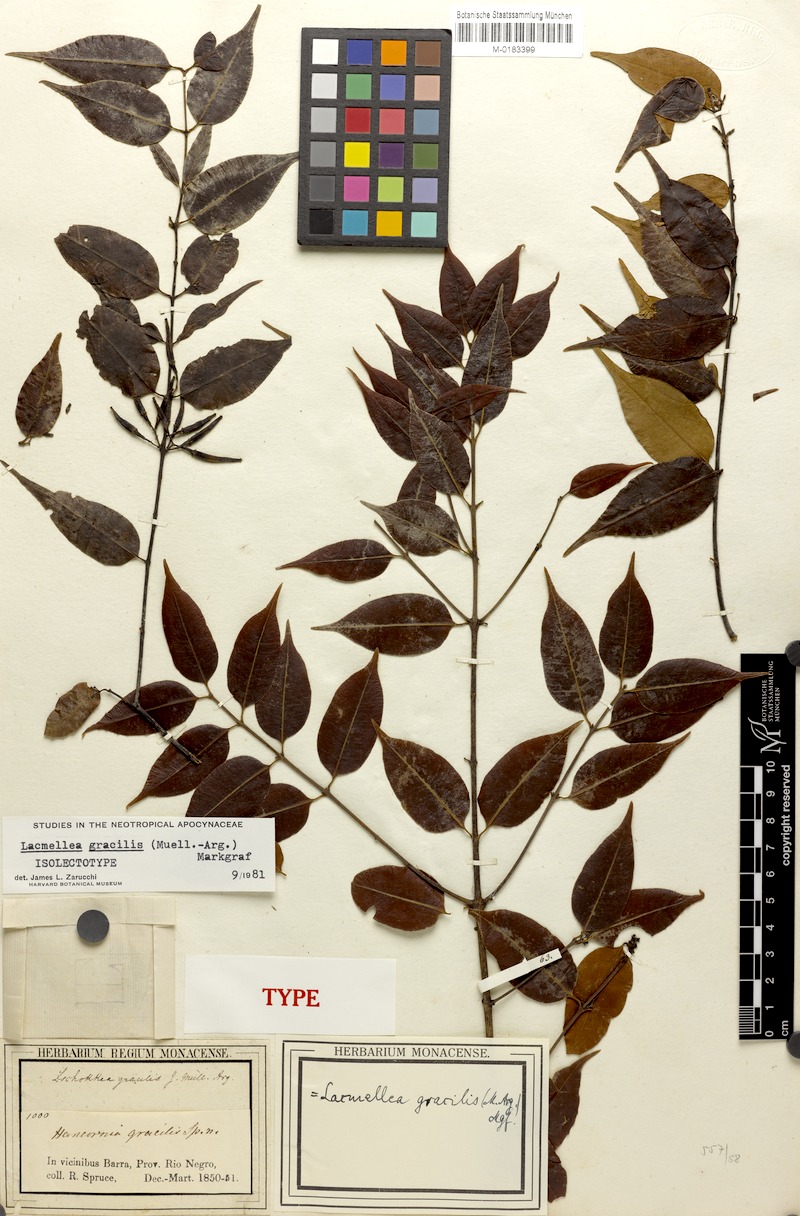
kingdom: Plantae
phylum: Tracheophyta
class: Magnoliopsida
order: Gentianales
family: Apocynaceae
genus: Lacmellea
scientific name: Lacmellea gracilis
